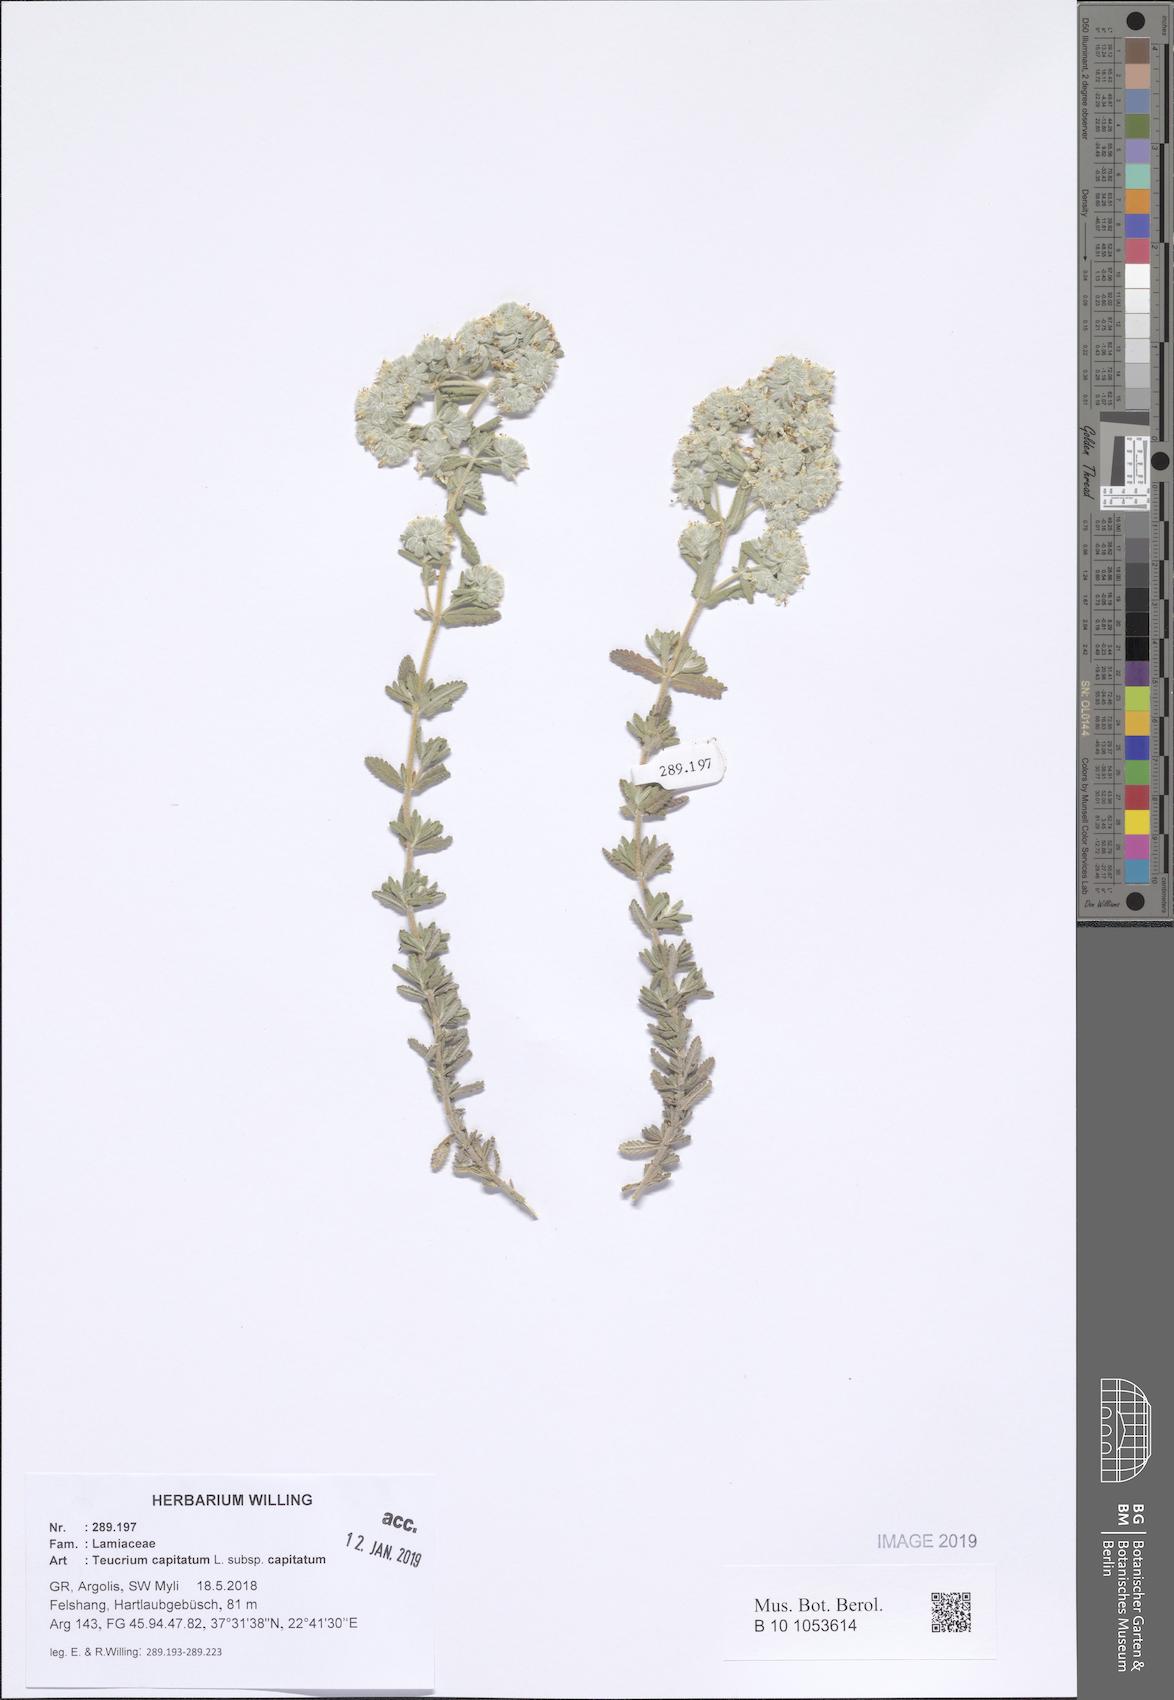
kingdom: Plantae
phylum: Tracheophyta
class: Magnoliopsida
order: Lamiales
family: Lamiaceae
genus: Teucrium
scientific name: Teucrium capitatum
